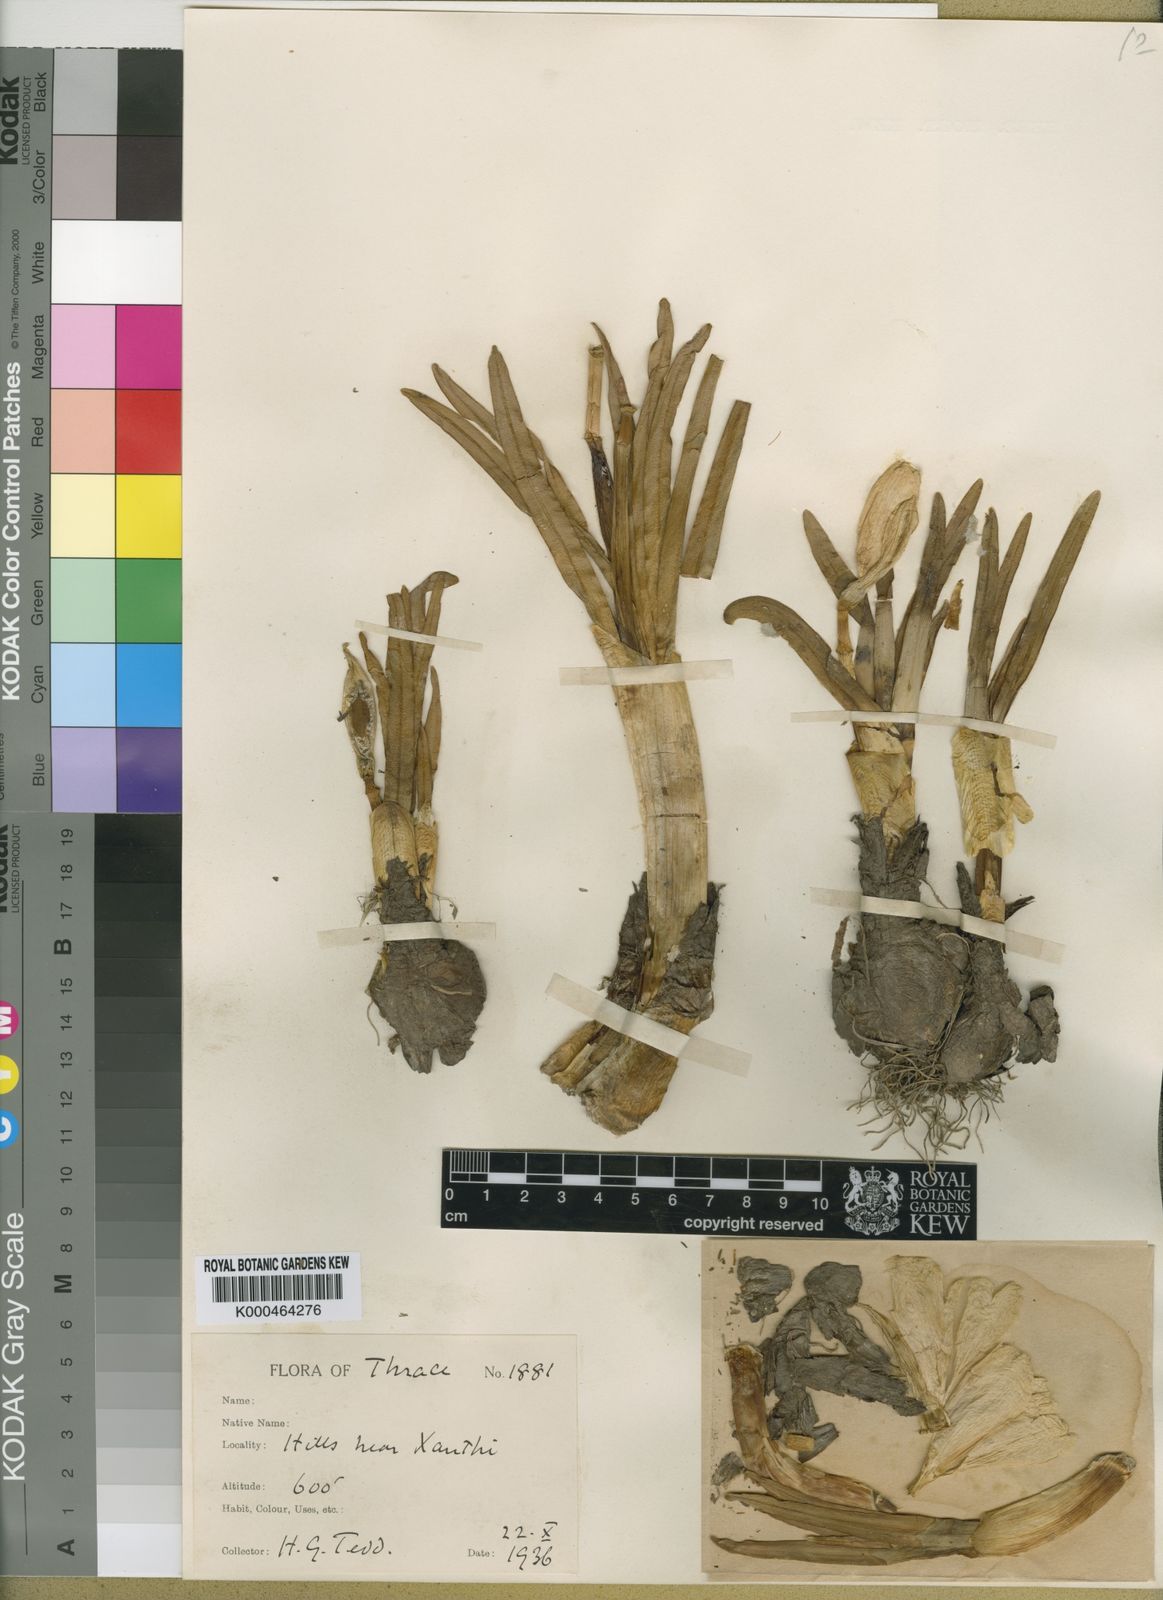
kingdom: Plantae
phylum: Tracheophyta
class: Liliopsida
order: Asparagales
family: Amaryllidaceae
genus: Sternbergia
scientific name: Sternbergia
